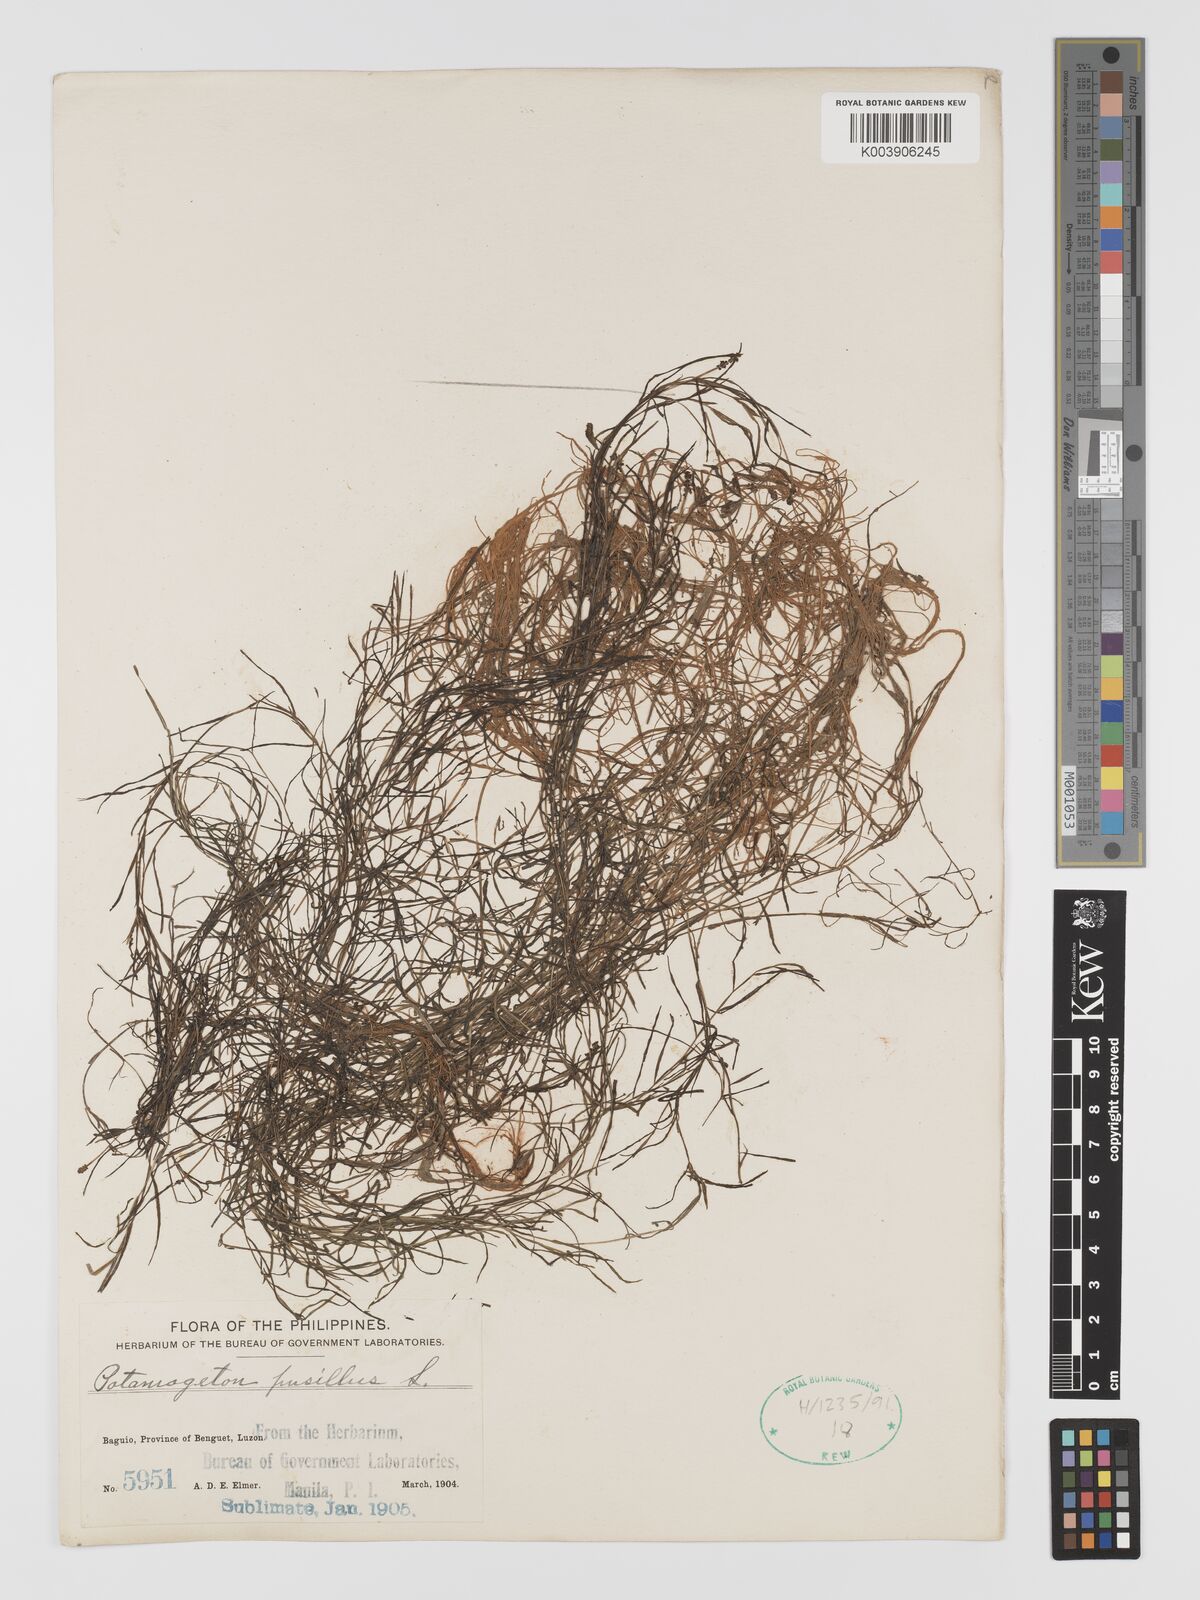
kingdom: Plantae
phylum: Tracheophyta
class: Liliopsida
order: Alismatales
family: Potamogetonaceae
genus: Potamogeton
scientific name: Potamogeton pusillus
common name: Lesser pondweed
